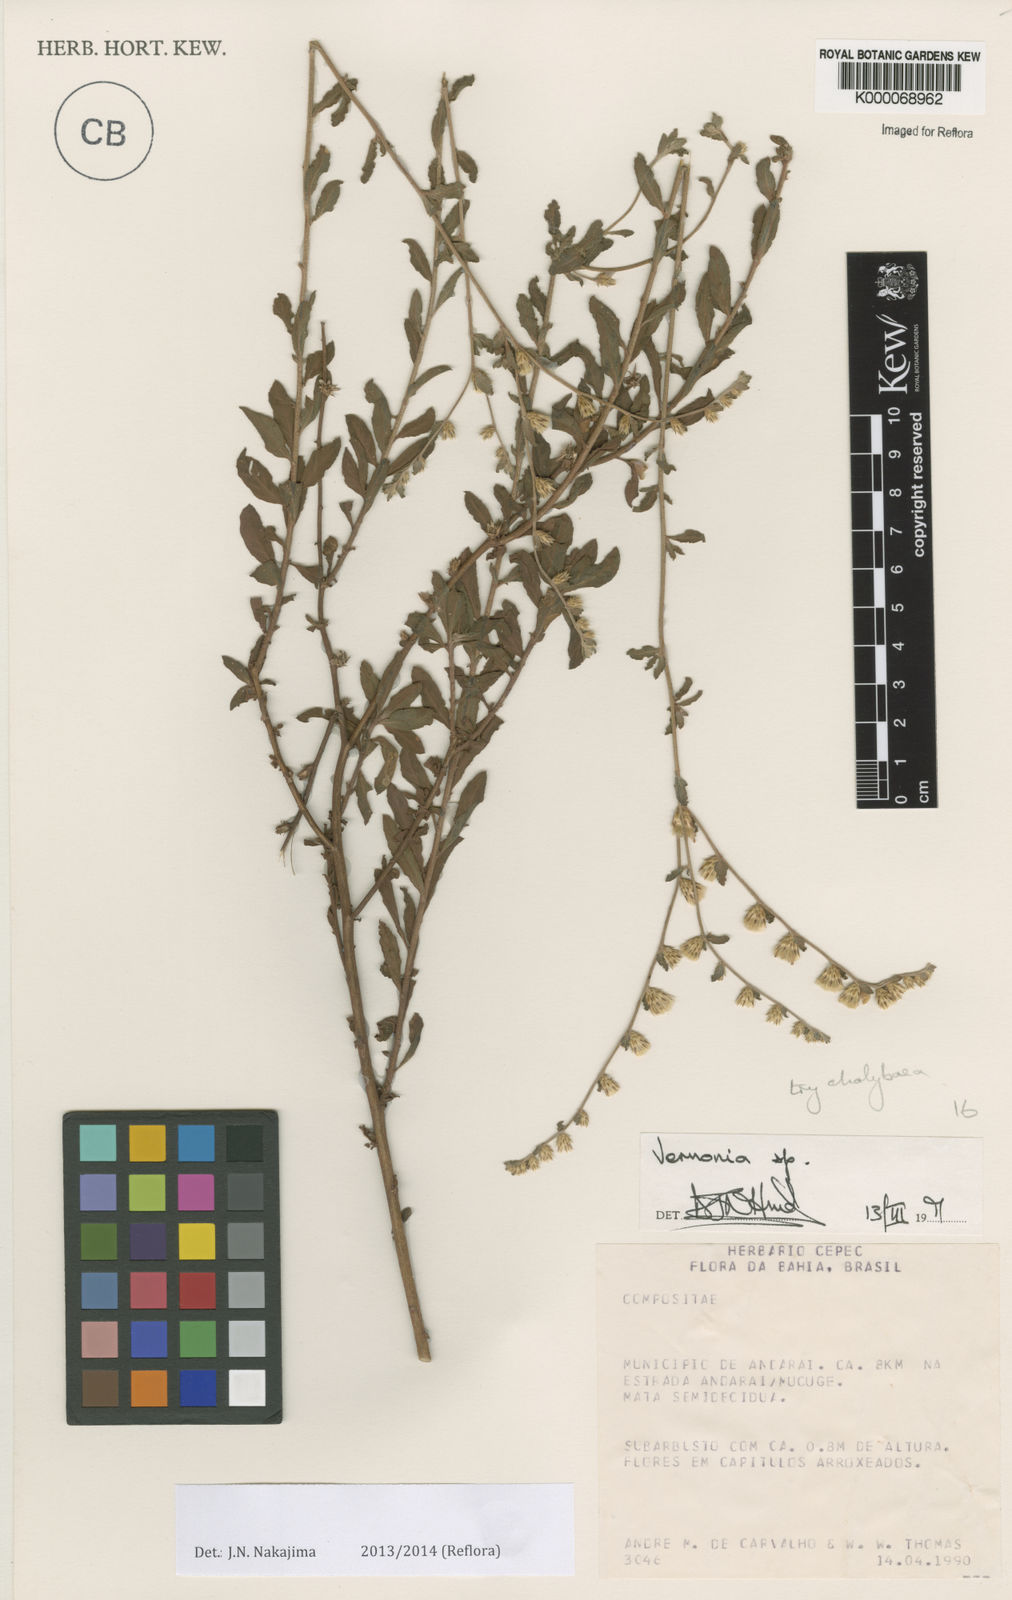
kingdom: Plantae
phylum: Tracheophyta
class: Magnoliopsida
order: Asterales
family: Asteraceae
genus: Vernonia
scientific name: Vernonia
